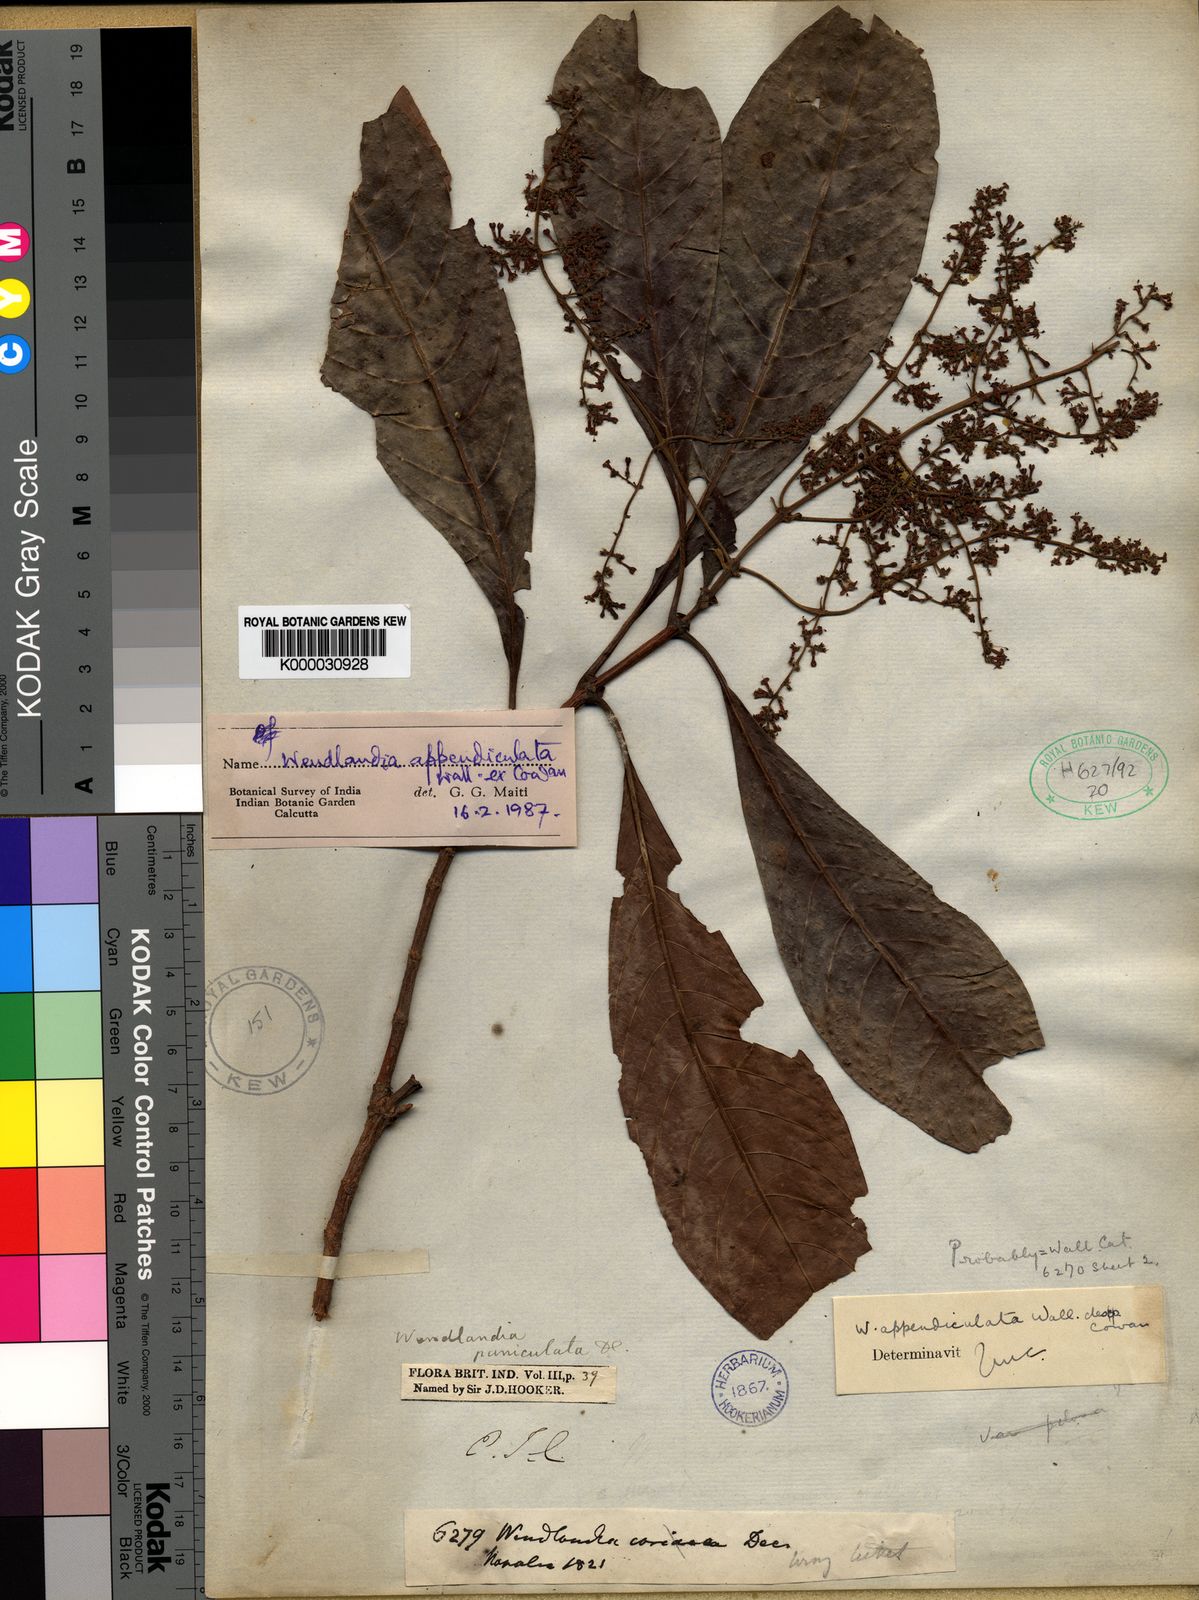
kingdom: Plantae
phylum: Tracheophyta
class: Magnoliopsida
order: Gentianales
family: Rubiaceae
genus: Wendlandia
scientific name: Wendlandia
